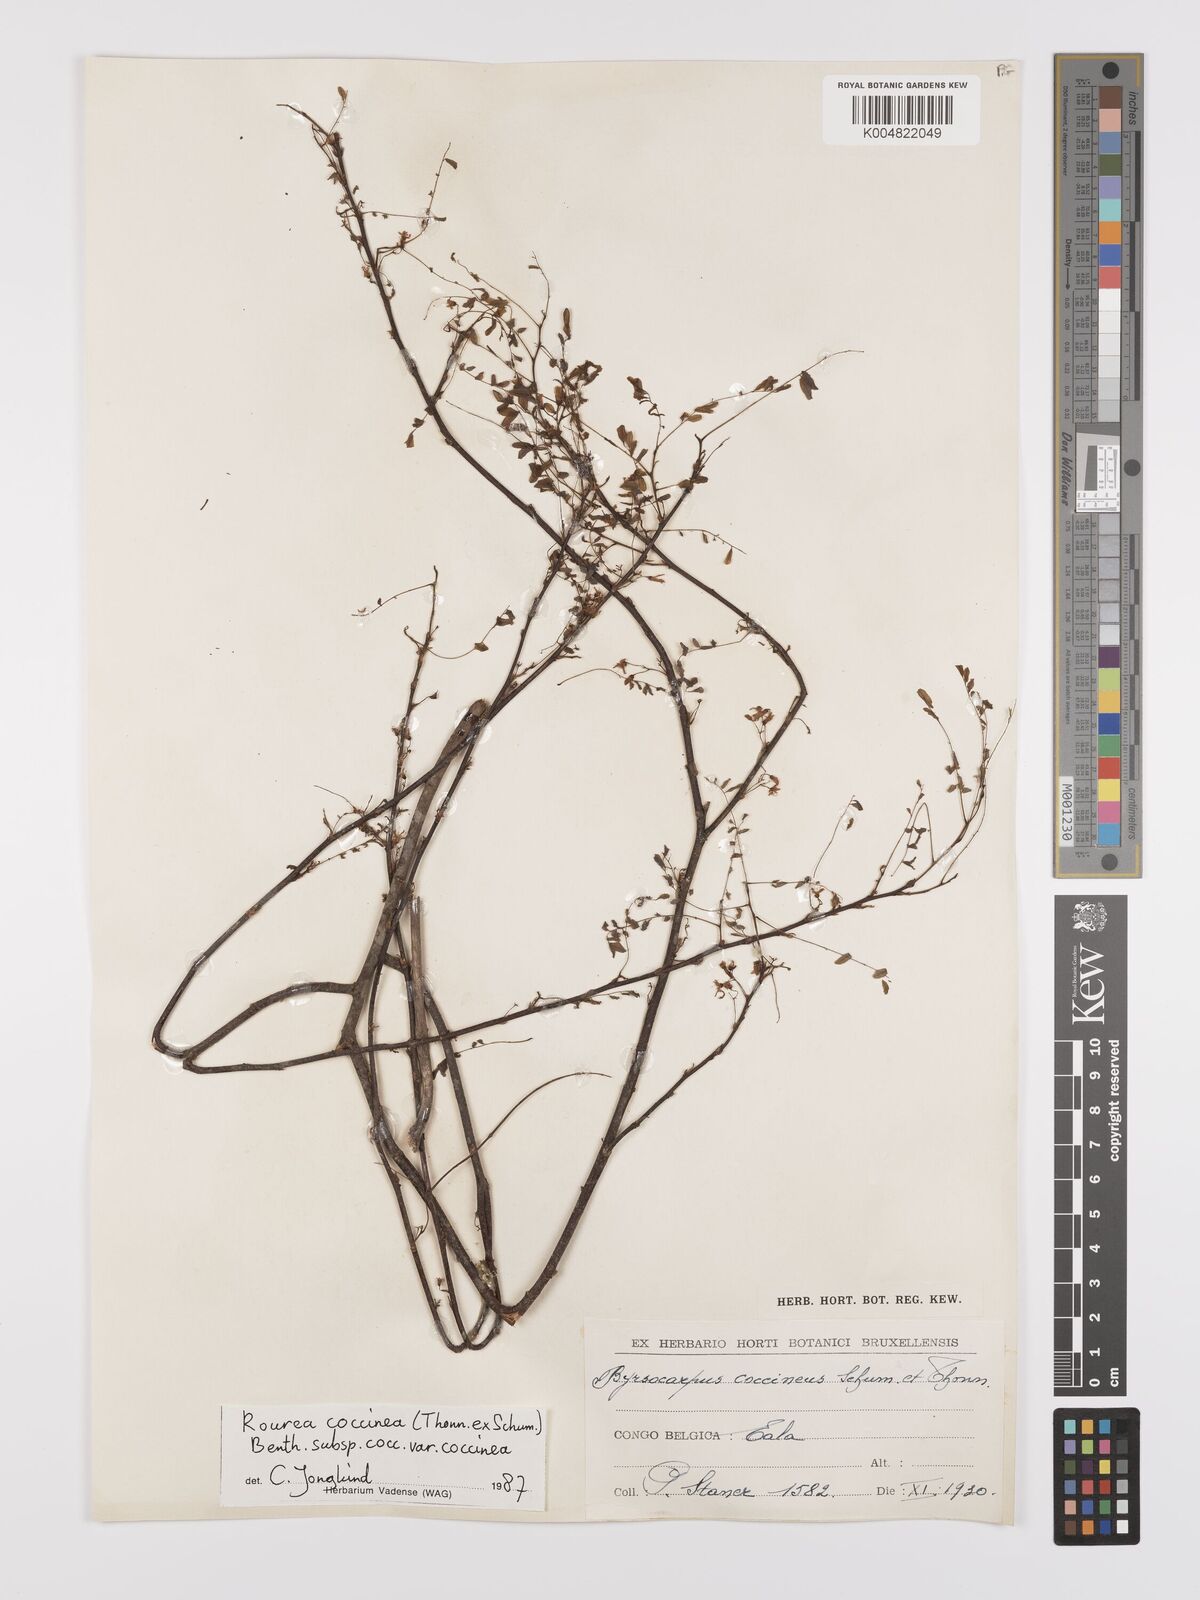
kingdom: Plantae
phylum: Tracheophyta
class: Magnoliopsida
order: Oxalidales
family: Connaraceae
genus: Rourea
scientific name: Rourea coccinea
